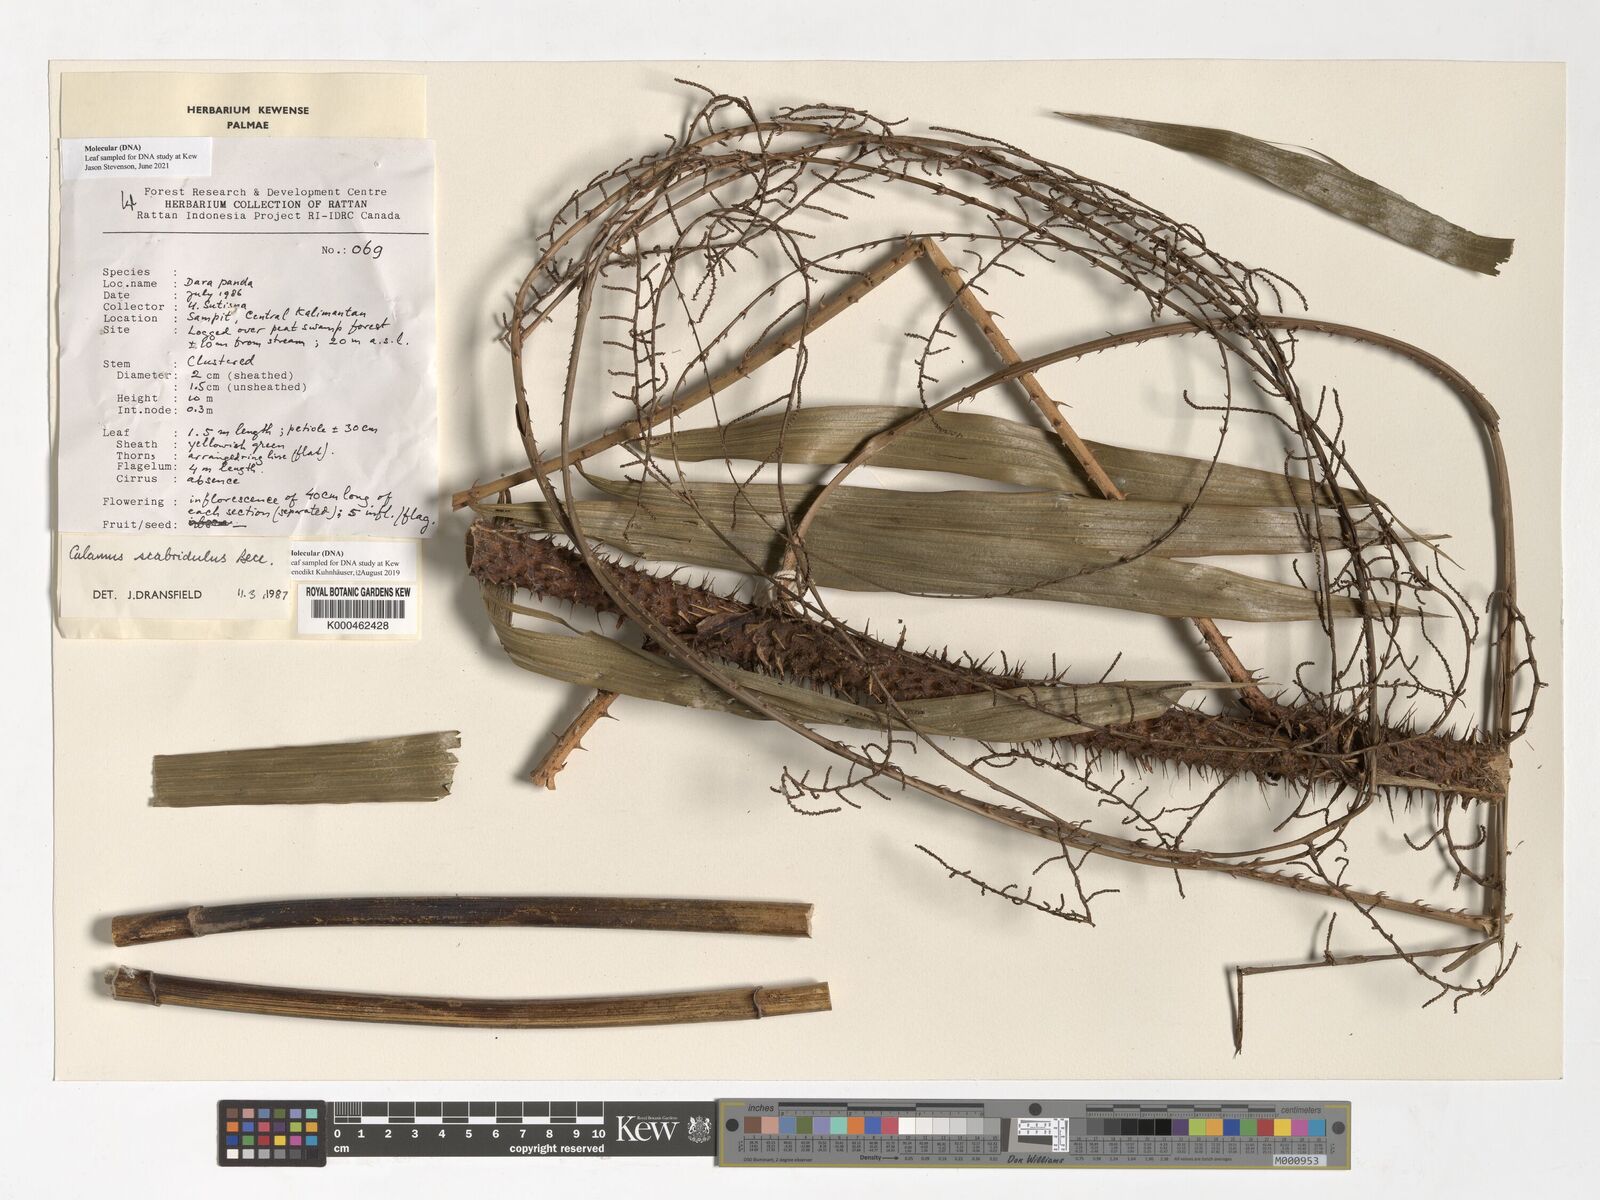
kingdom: Plantae
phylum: Tracheophyta
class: Liliopsida
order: Arecales
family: Arecaceae
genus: Calamus
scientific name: Calamus scabridulus
